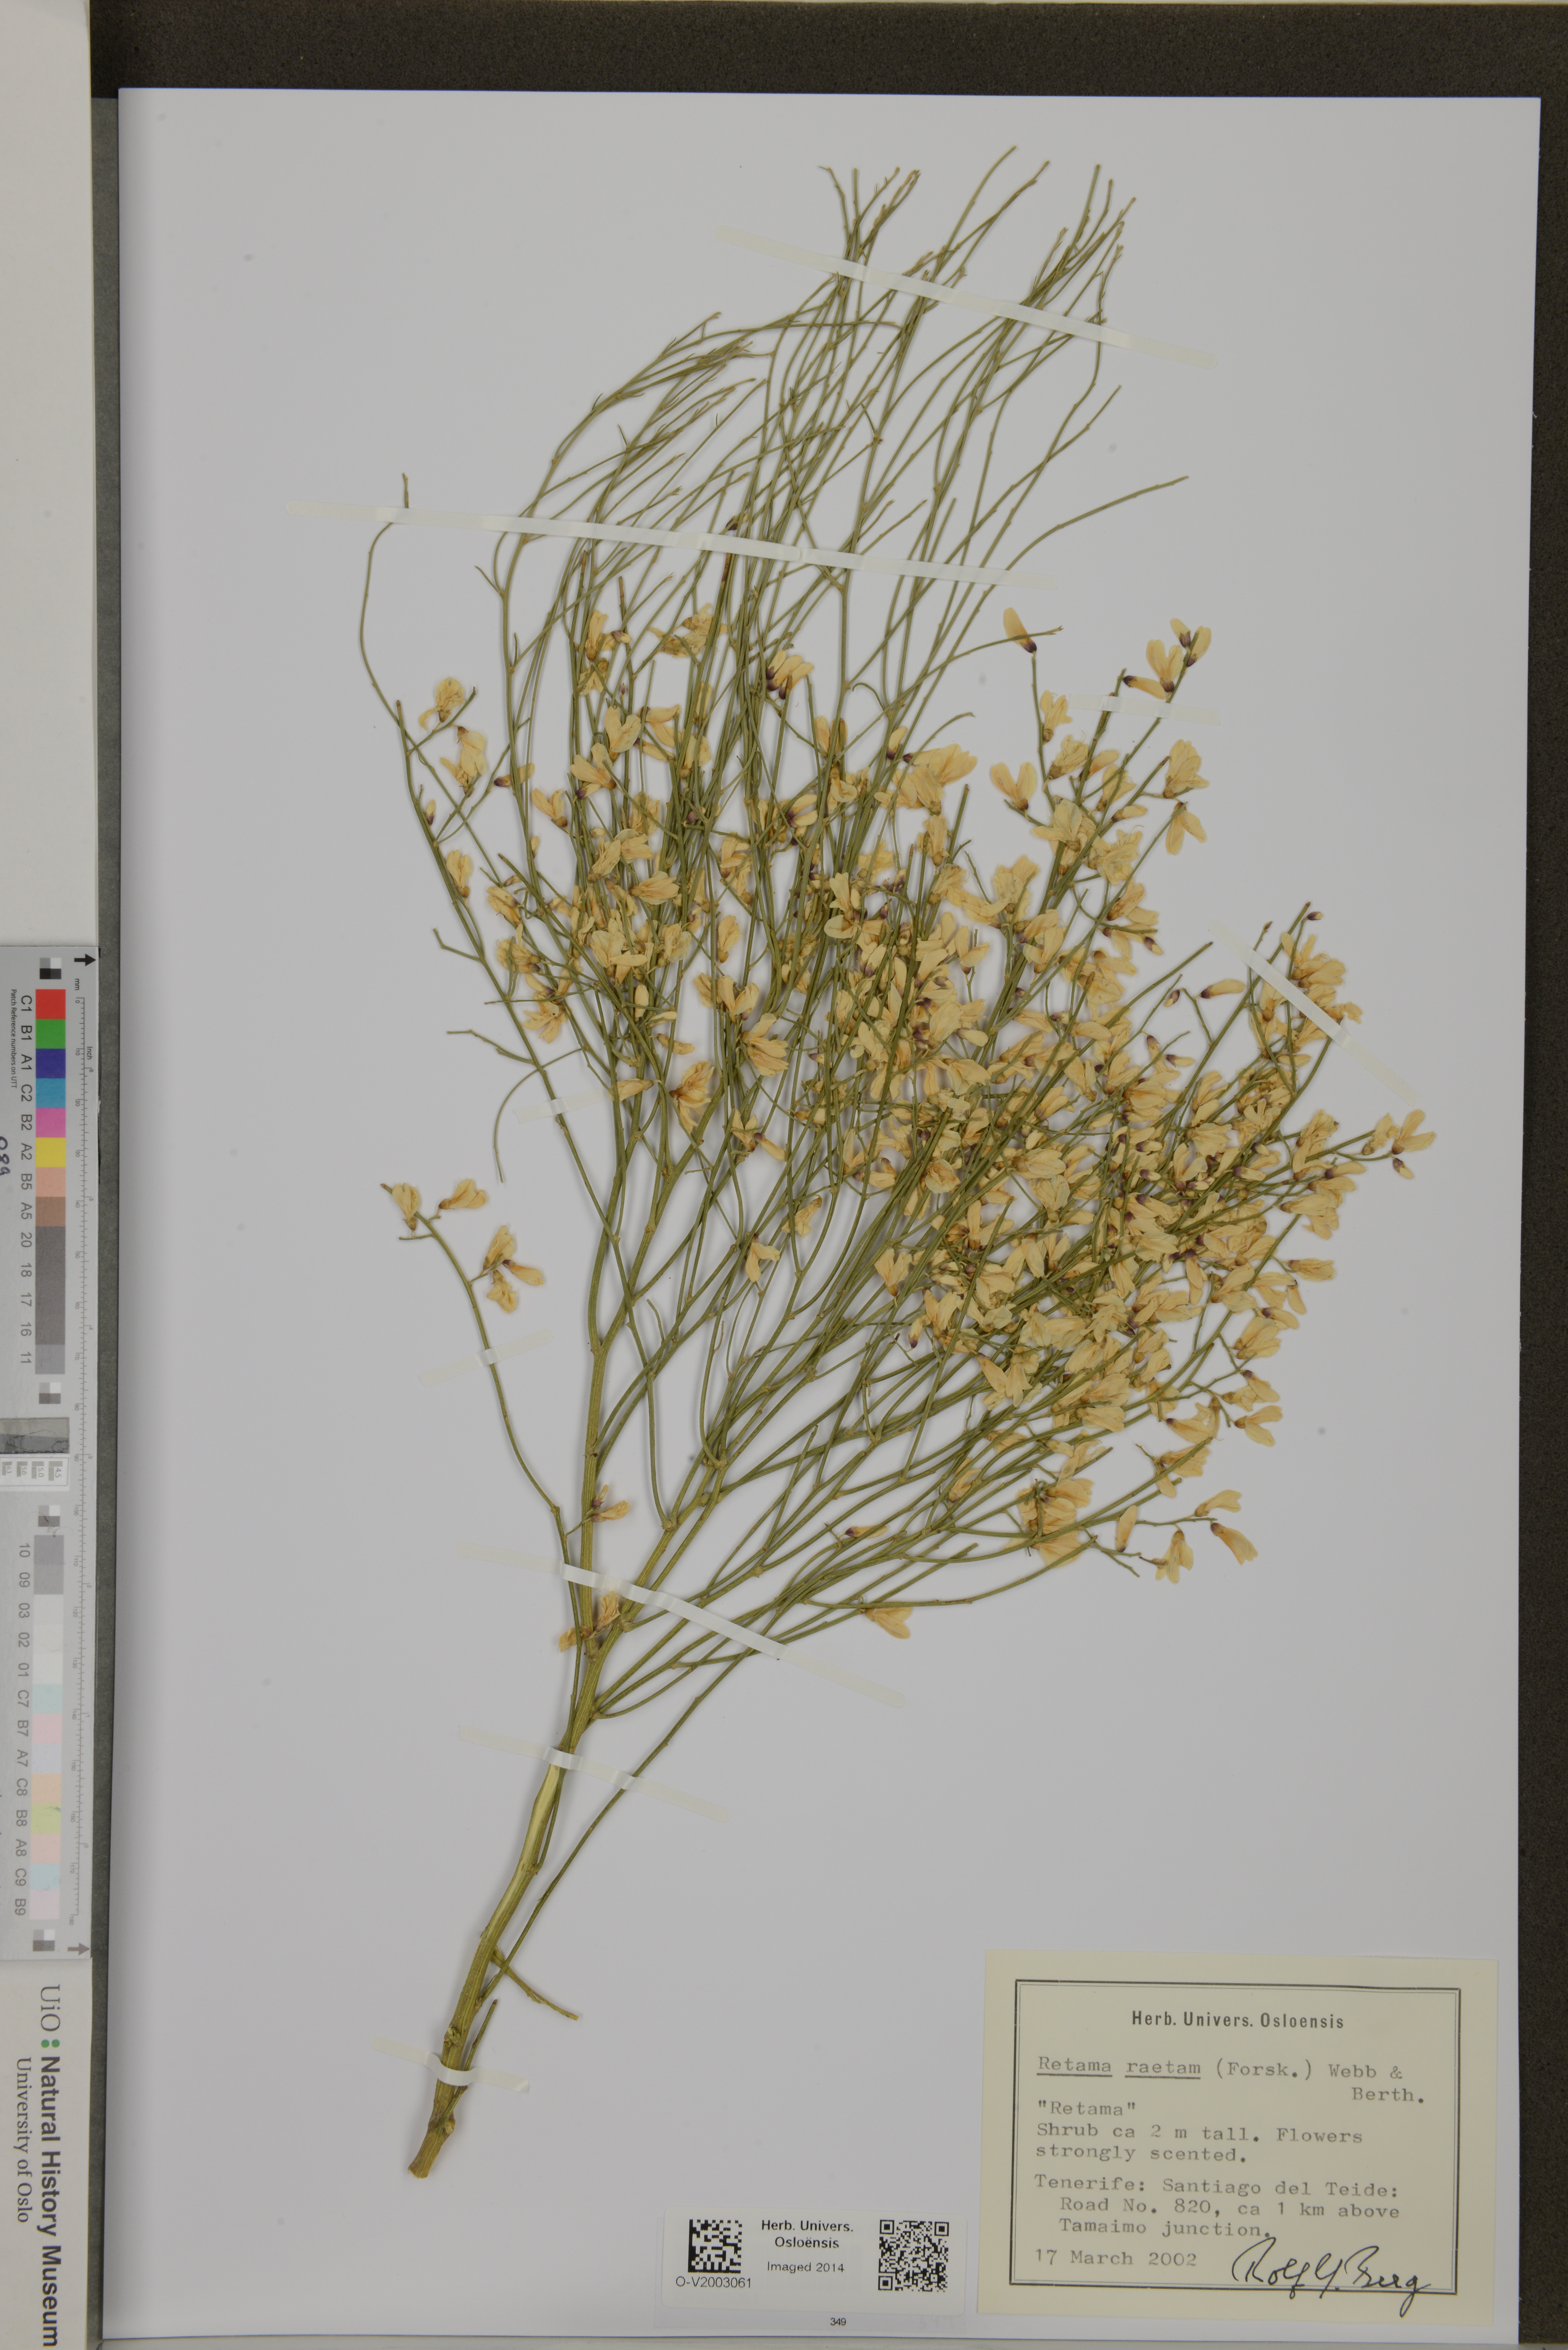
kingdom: Plantae
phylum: Tracheophyta
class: Magnoliopsida
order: Fabales
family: Fabaceae
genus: Retama
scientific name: Retama raetam
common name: Retem
